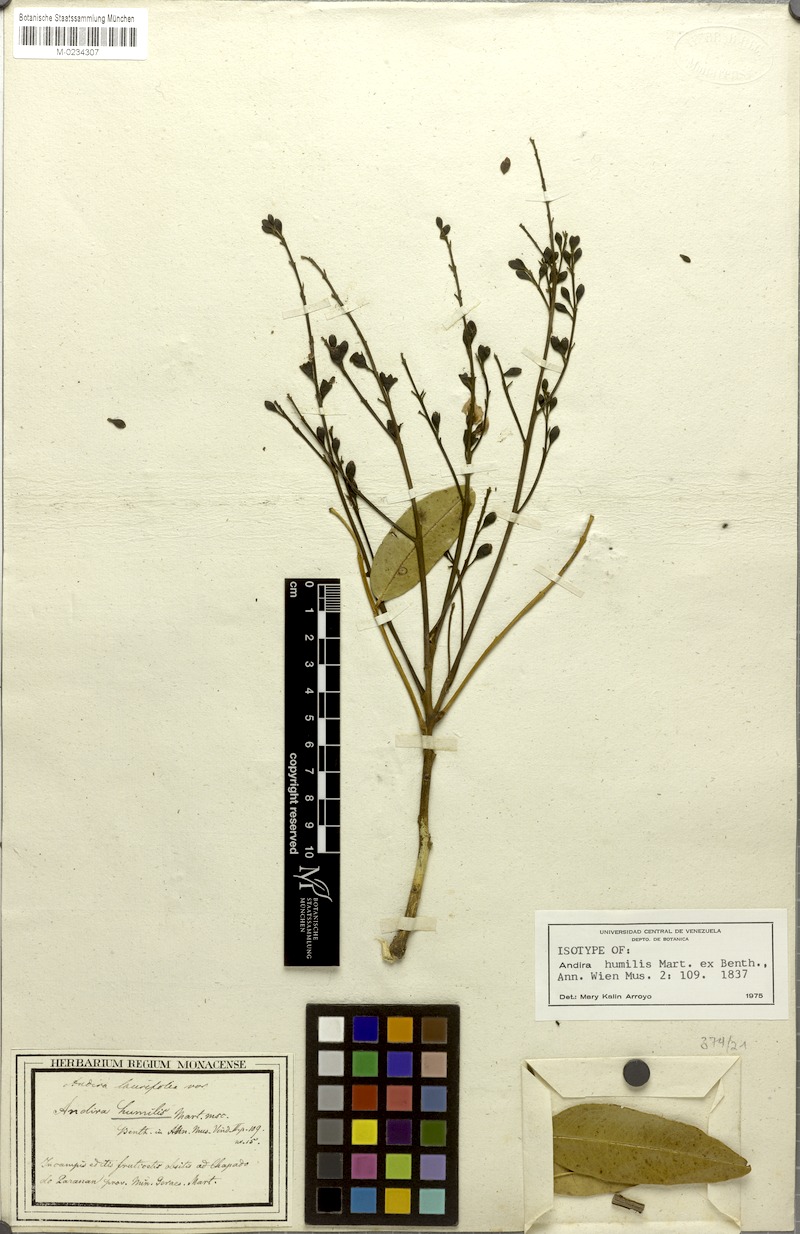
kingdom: Plantae
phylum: Tracheophyta
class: Magnoliopsida
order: Fabales
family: Fabaceae
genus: Andira
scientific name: Andira humilis
